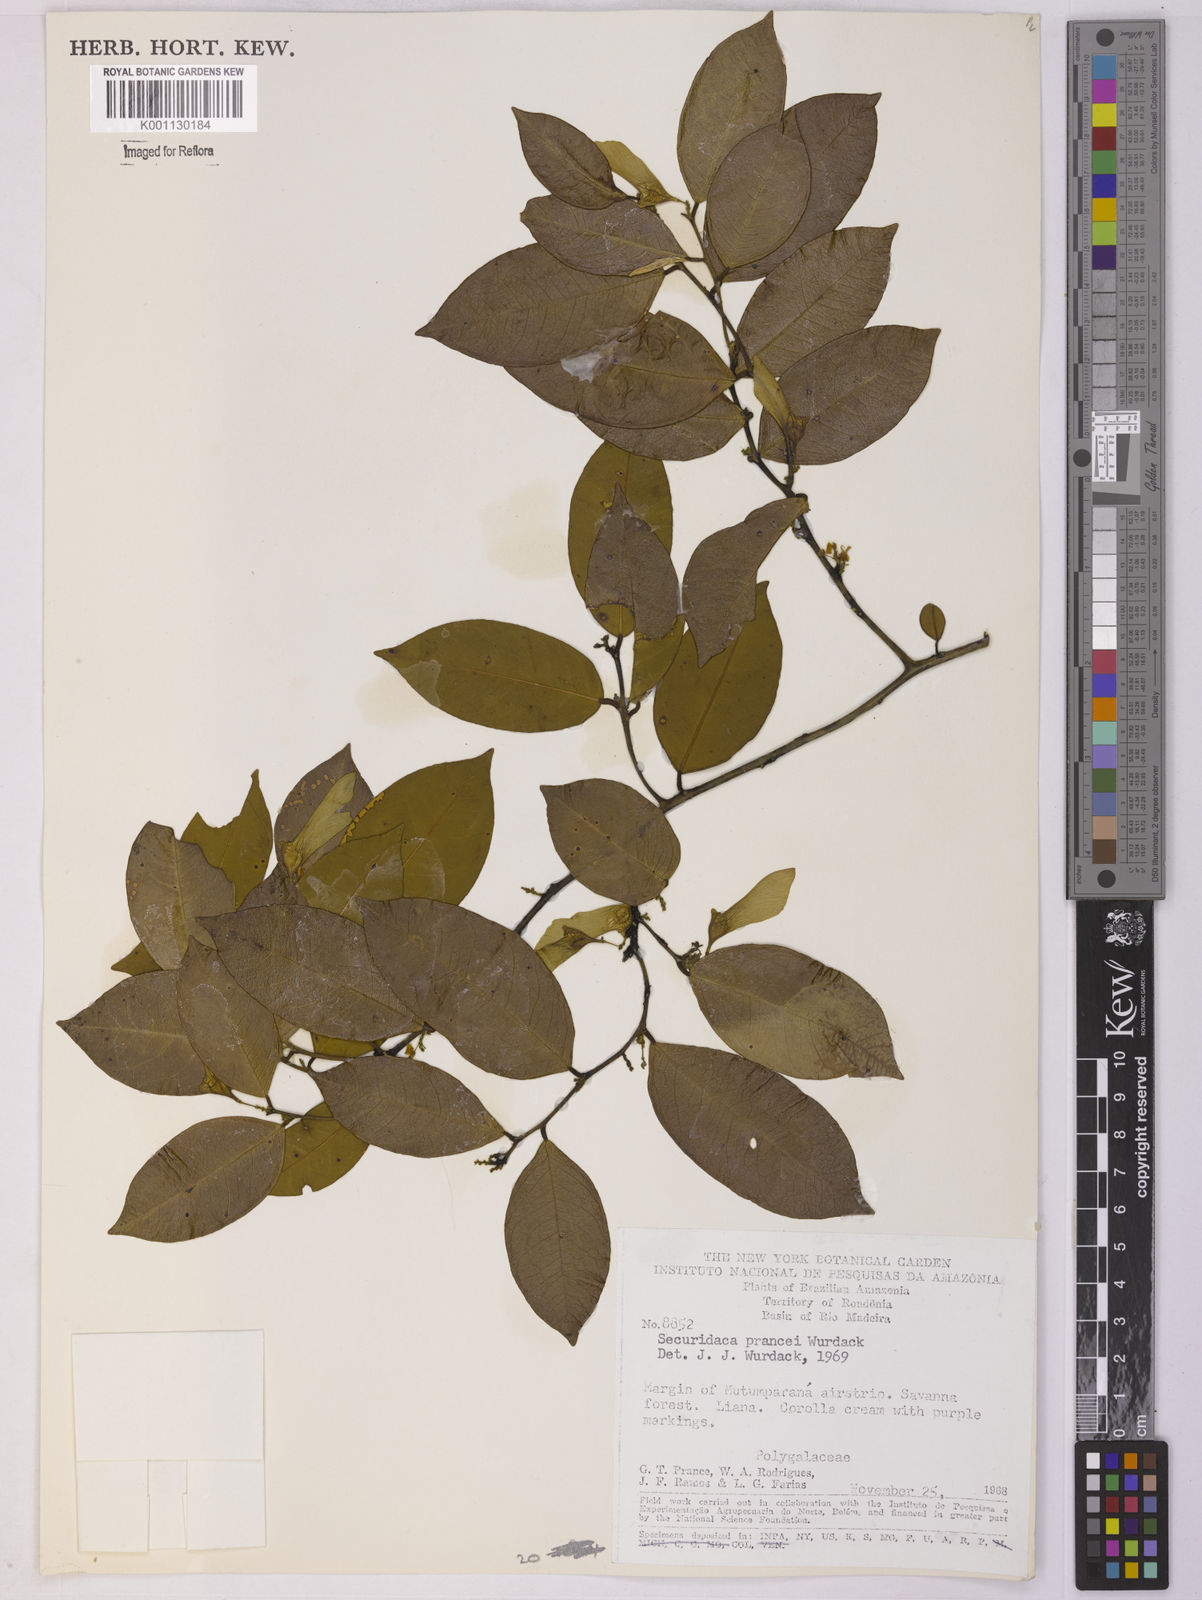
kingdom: Plantae
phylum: Tracheophyta
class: Magnoliopsida
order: Fabales
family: Polygalaceae
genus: Securidaca
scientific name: Securidaca prancei
